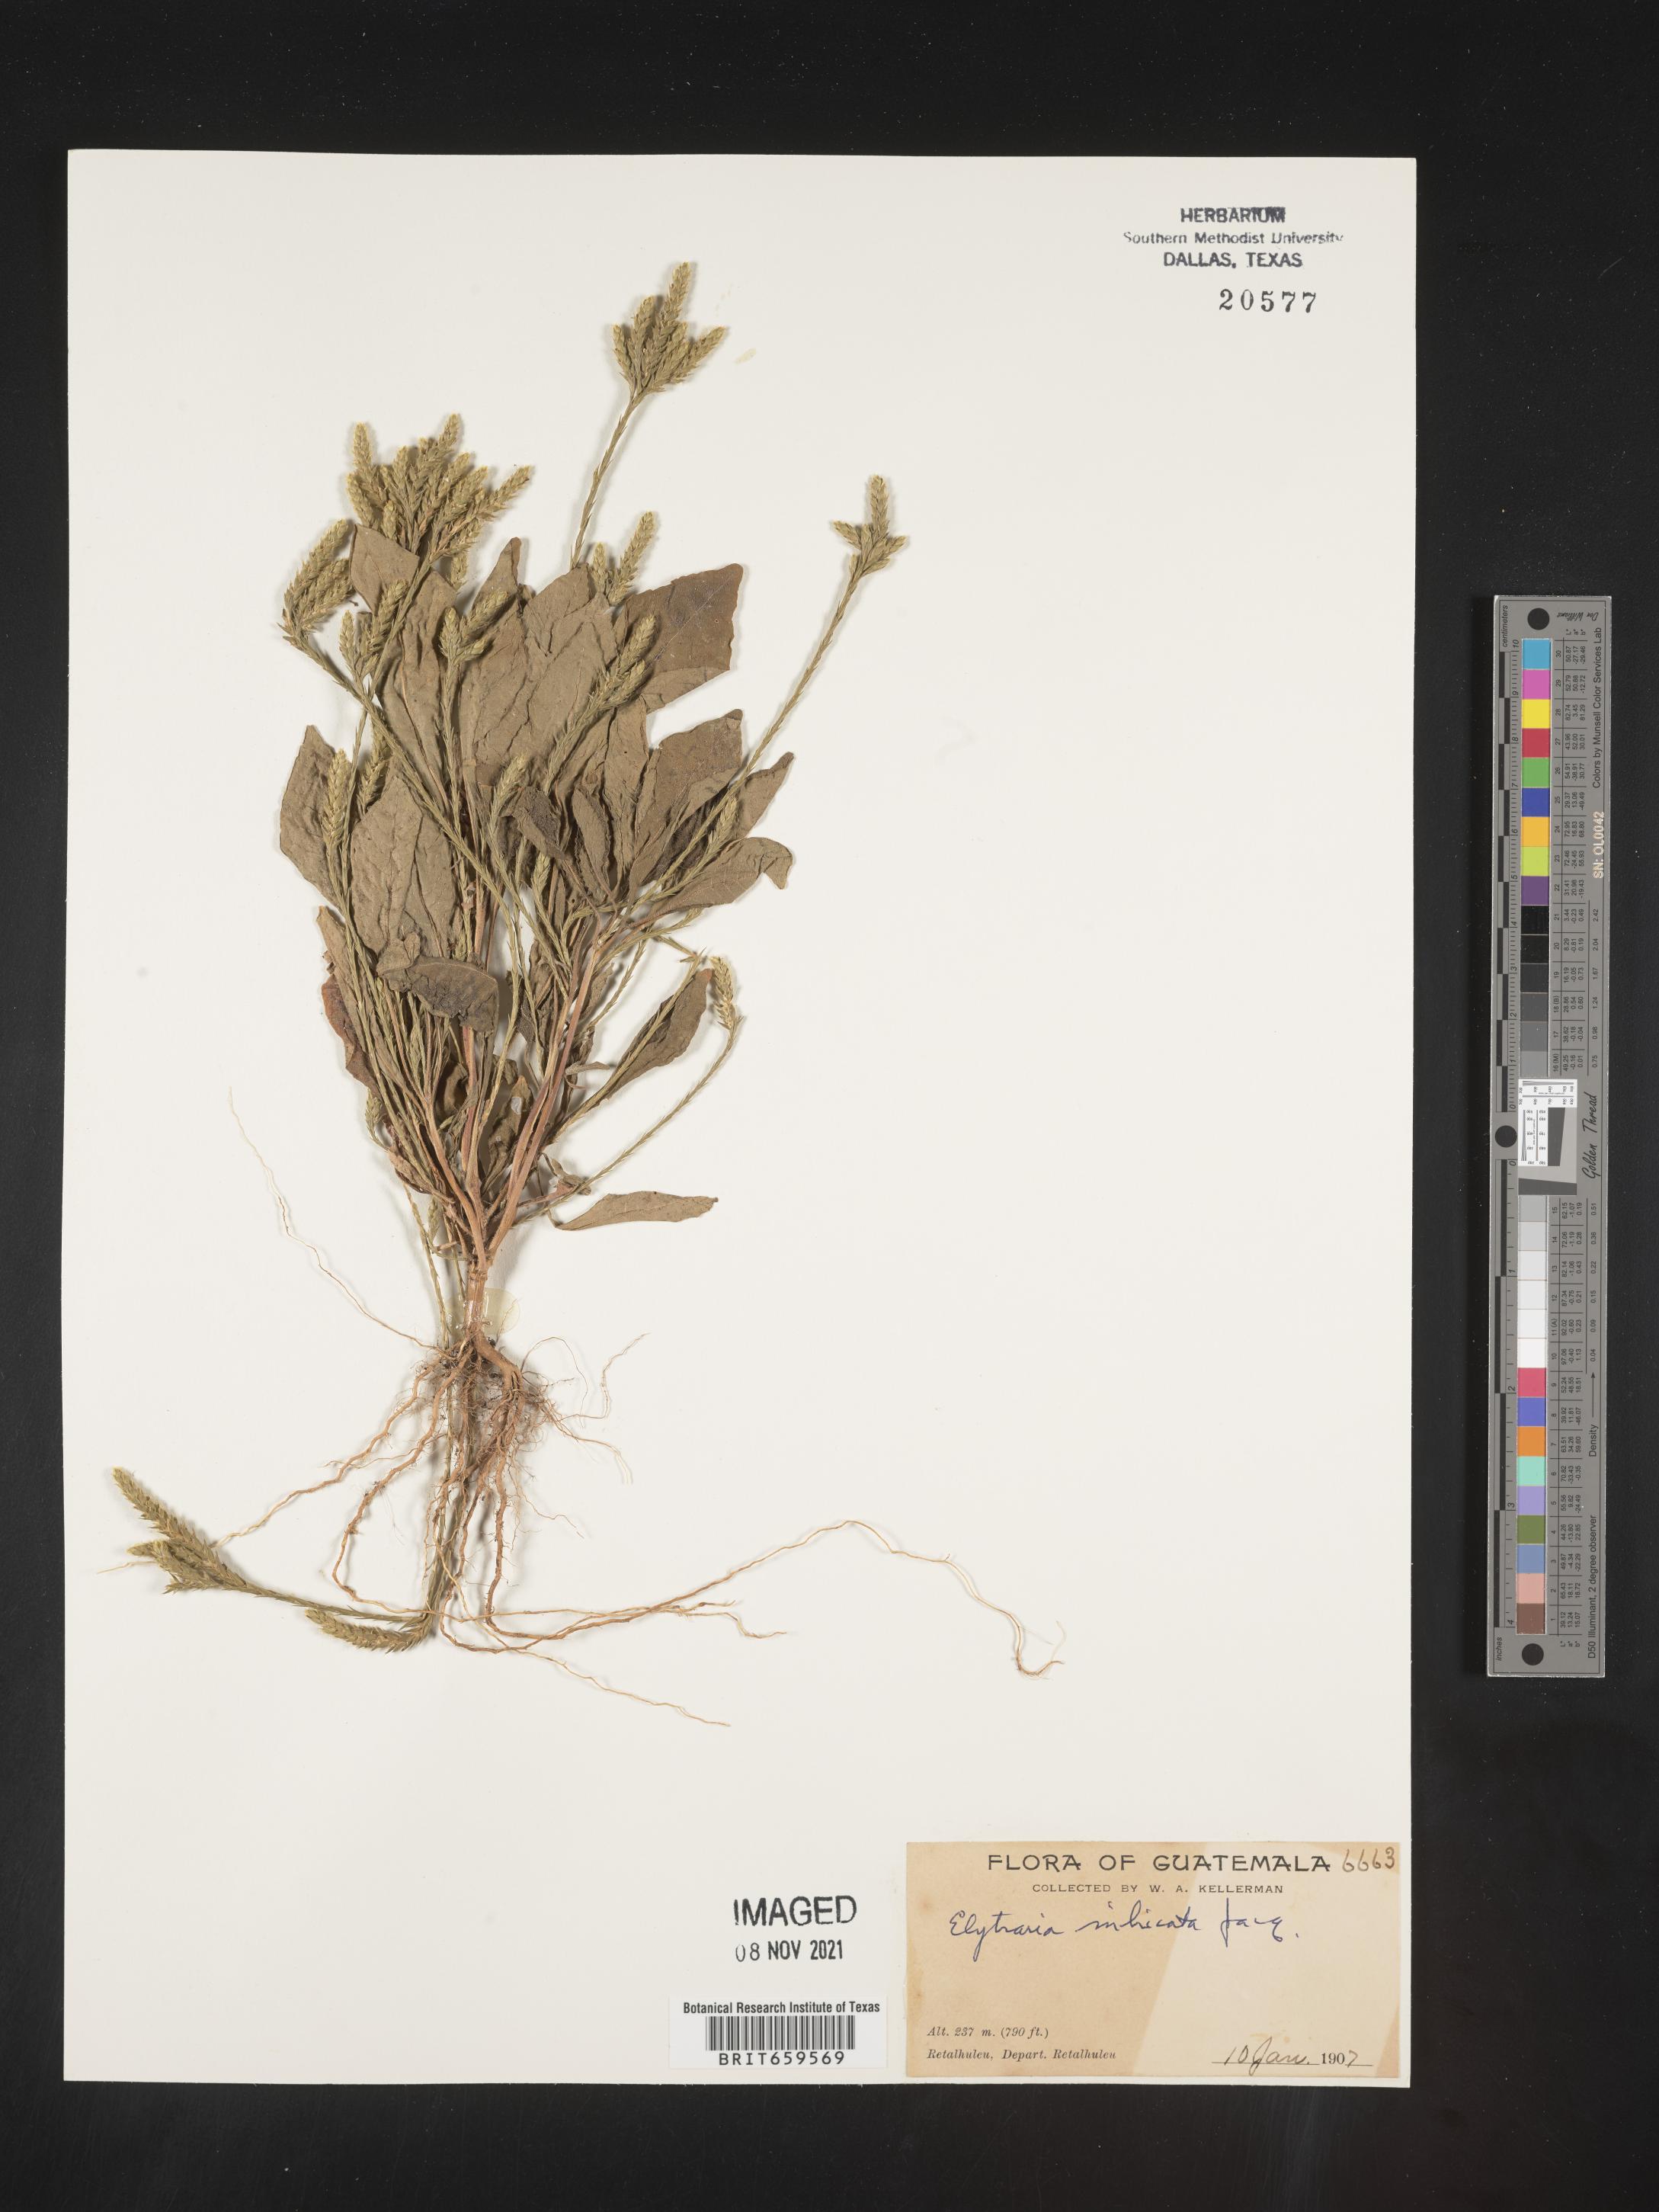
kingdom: Plantae
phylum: Tracheophyta
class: Magnoliopsida
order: Lamiales
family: Acanthaceae
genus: Elytraria
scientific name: Elytraria imbricata
